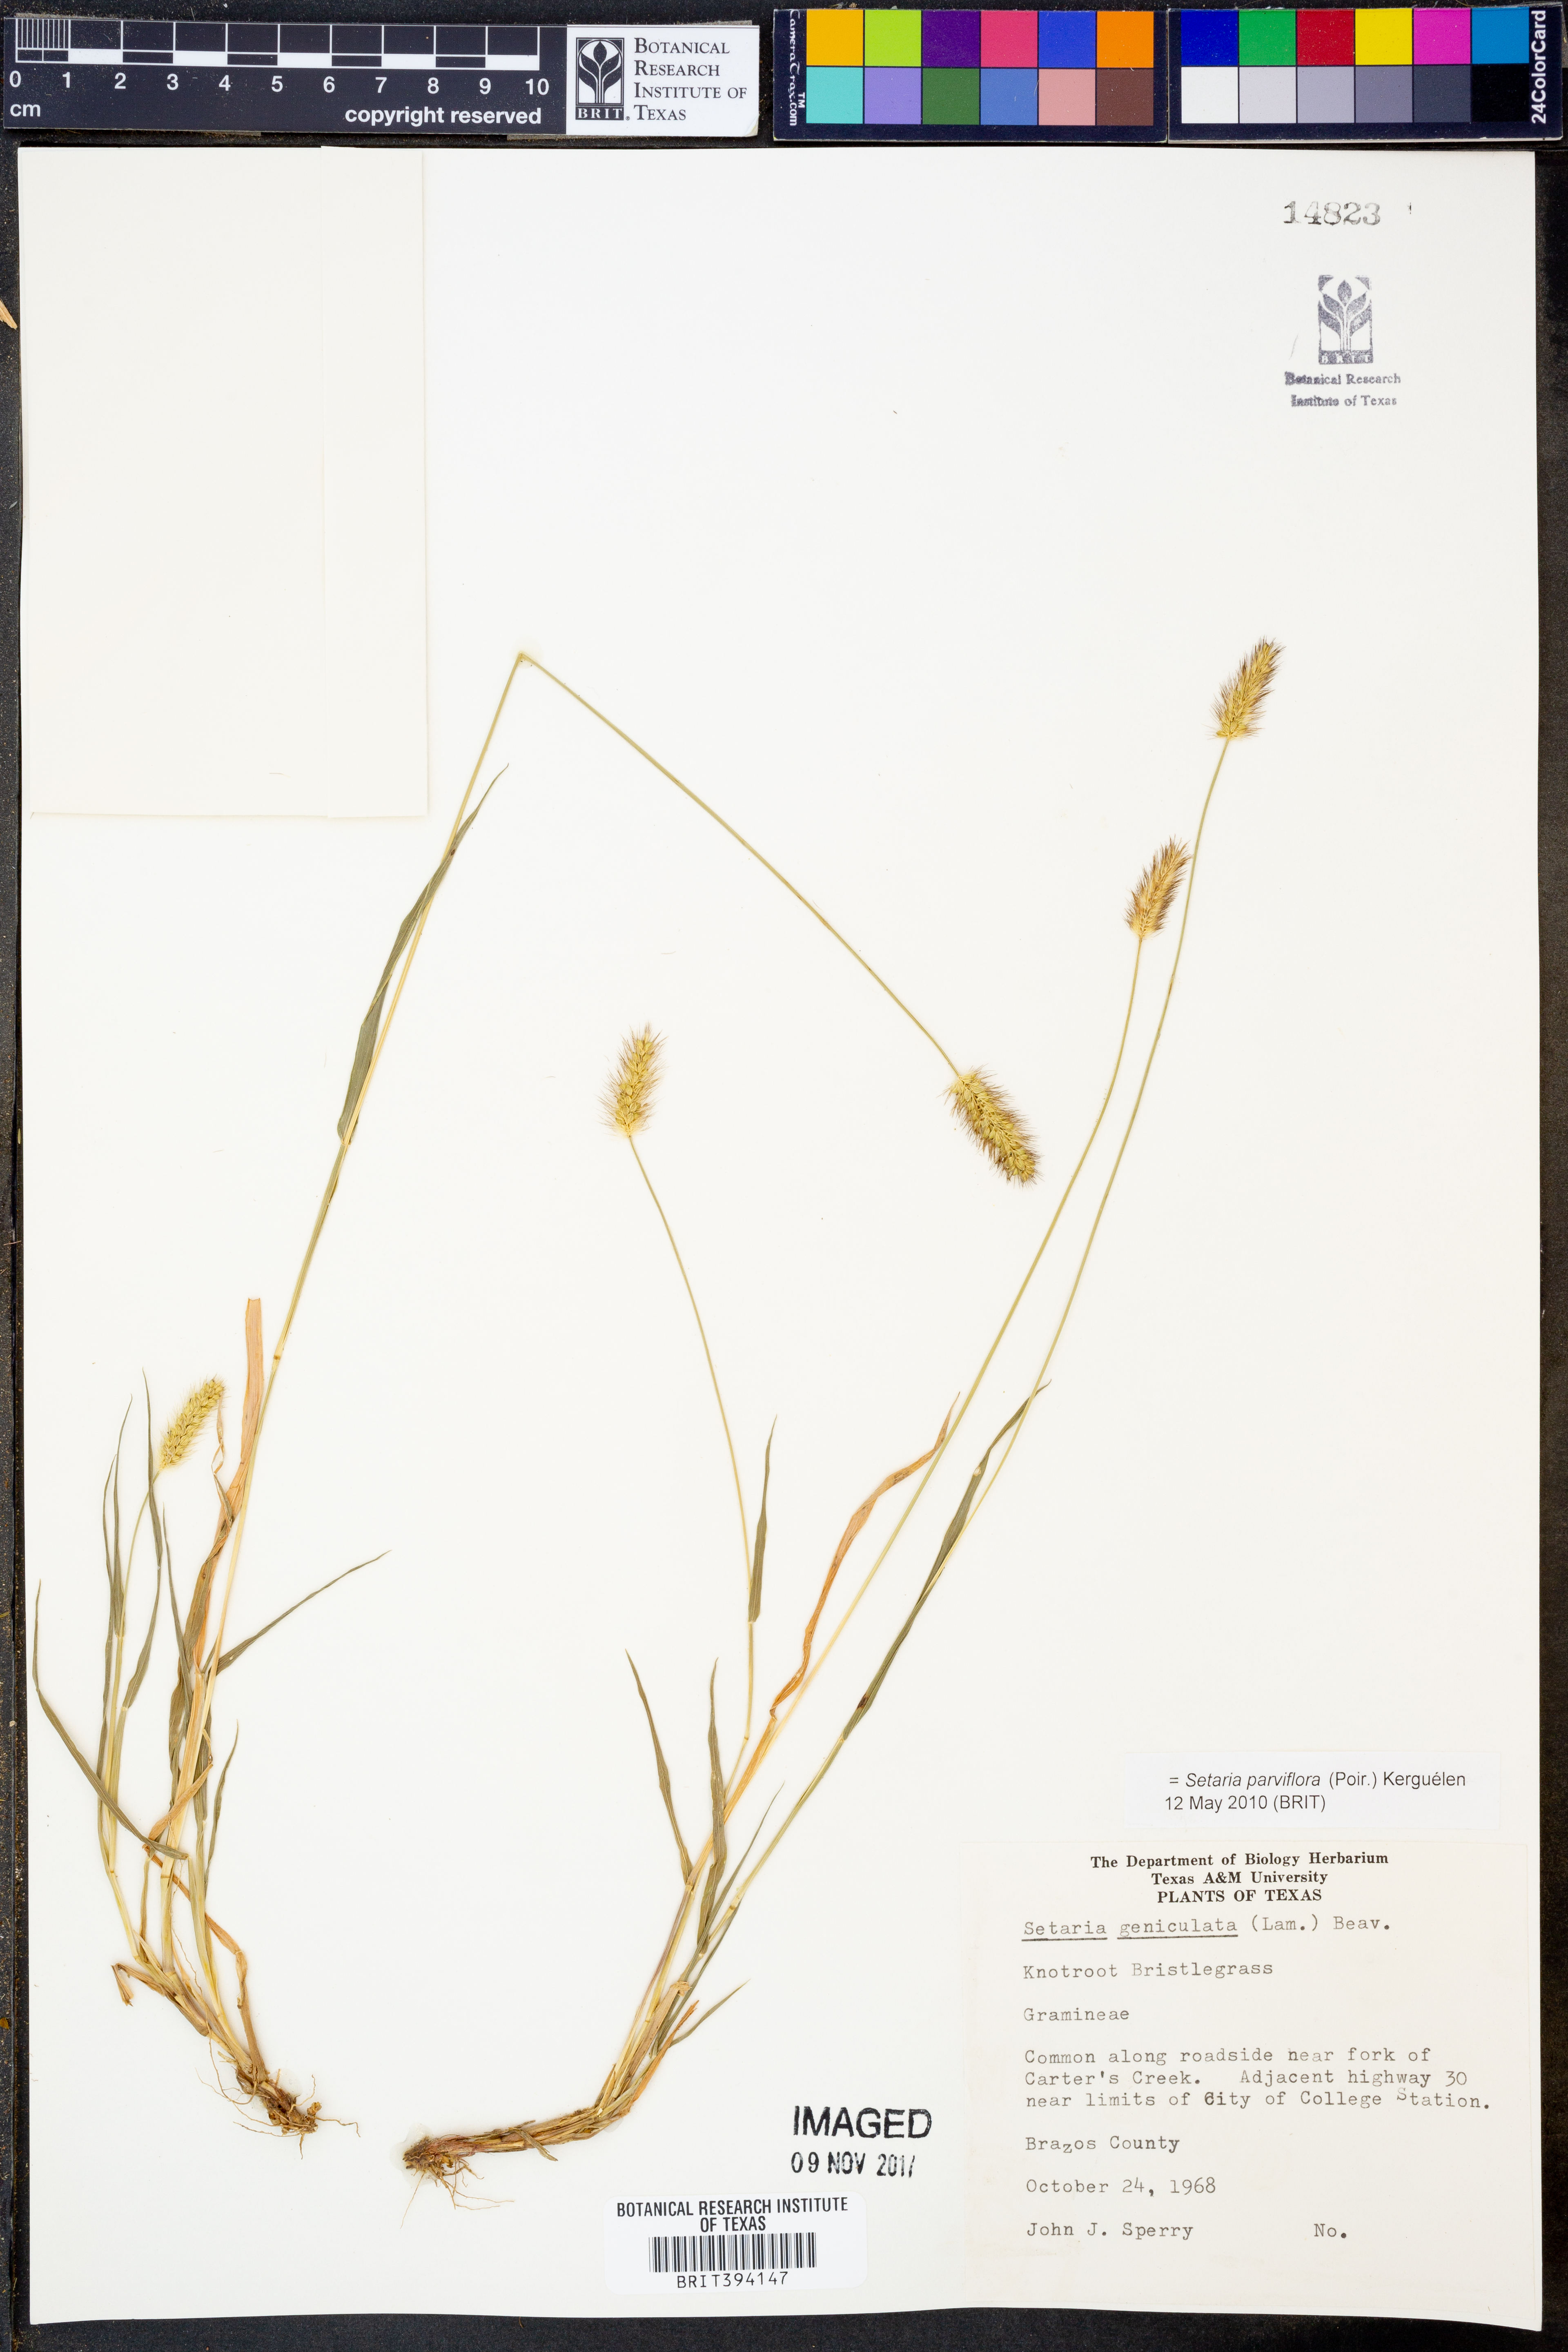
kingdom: Plantae
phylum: Tracheophyta
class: Liliopsida
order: Poales
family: Poaceae
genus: Setaria
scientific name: Setaria parviflora
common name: Knotroot bristle-grass
